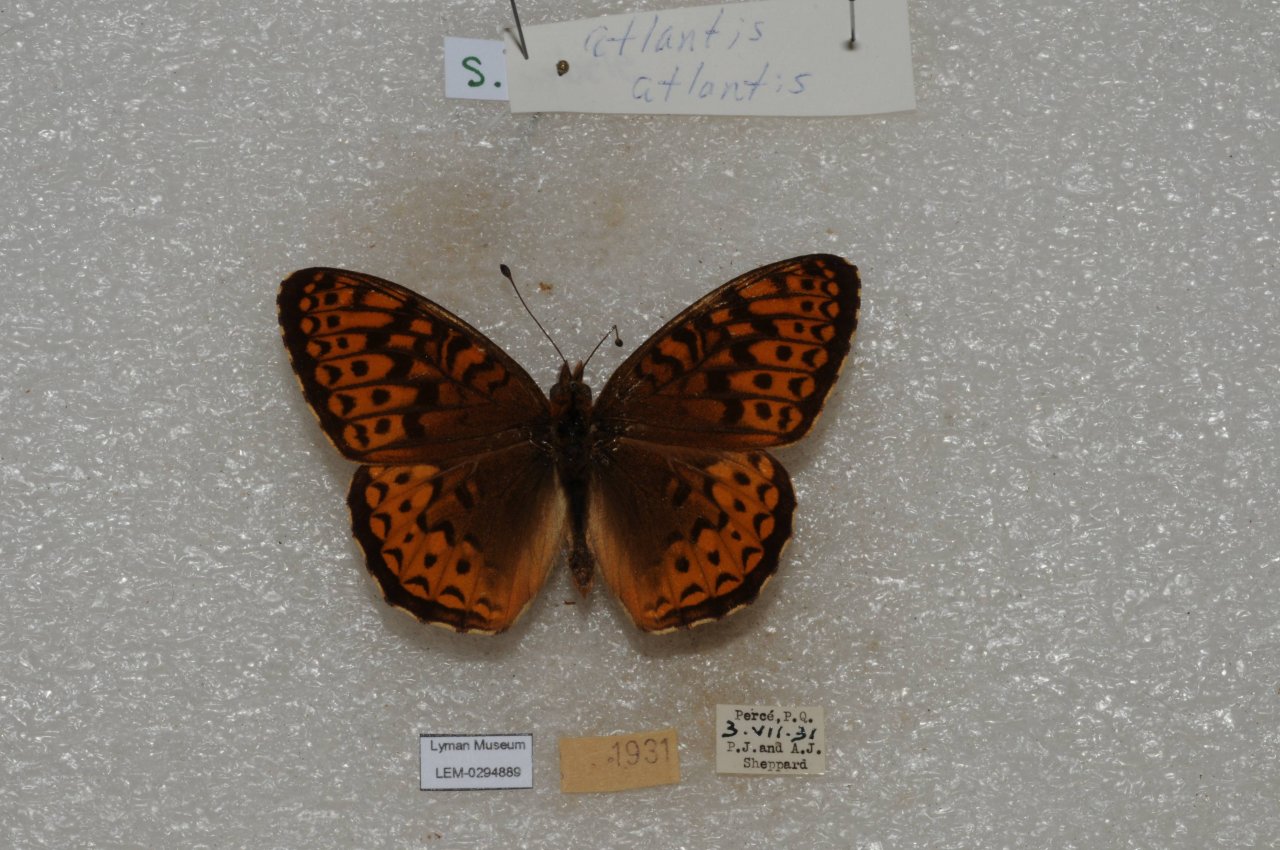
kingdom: Animalia
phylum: Arthropoda
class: Insecta
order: Lepidoptera
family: Nymphalidae
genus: Speyeria
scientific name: Speyeria atlantis
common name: Atlantis Fritillary
